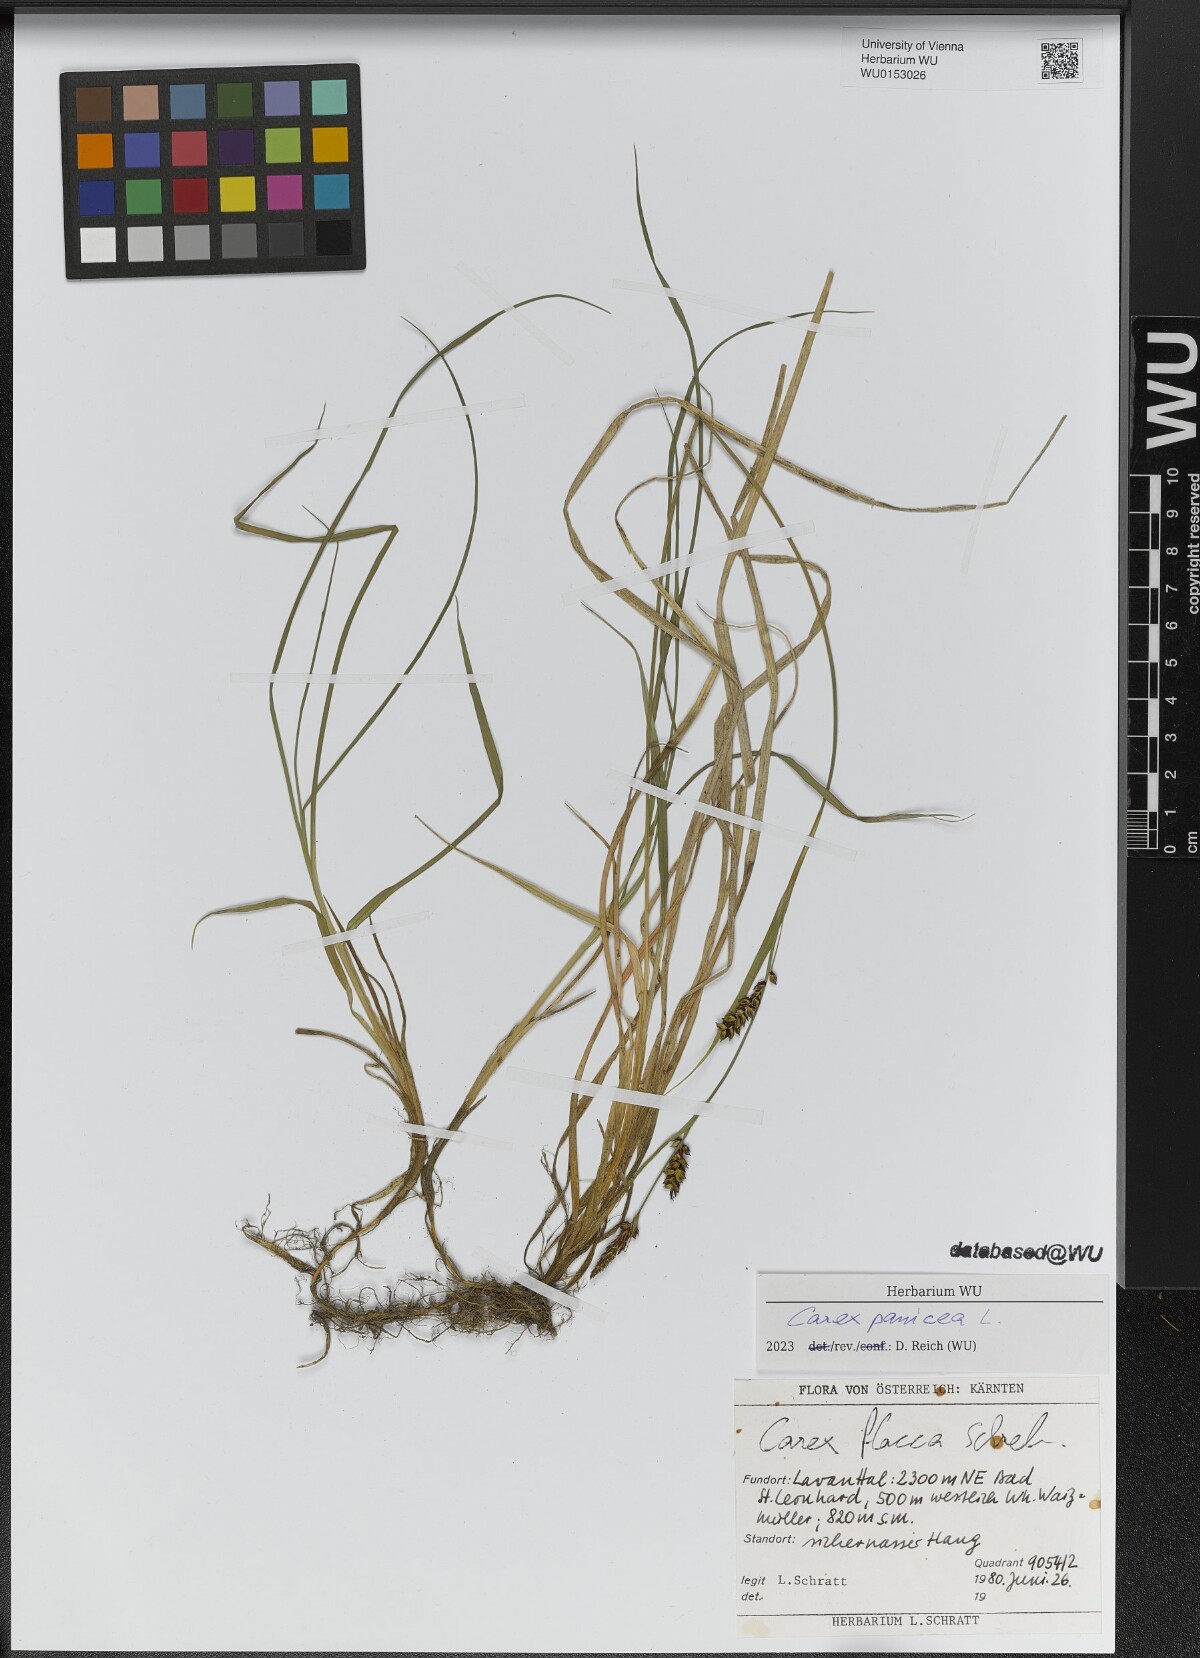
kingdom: Plantae
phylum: Tracheophyta
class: Liliopsida
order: Poales
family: Cyperaceae
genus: Carex
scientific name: Carex panicea
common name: Carnation sedge
